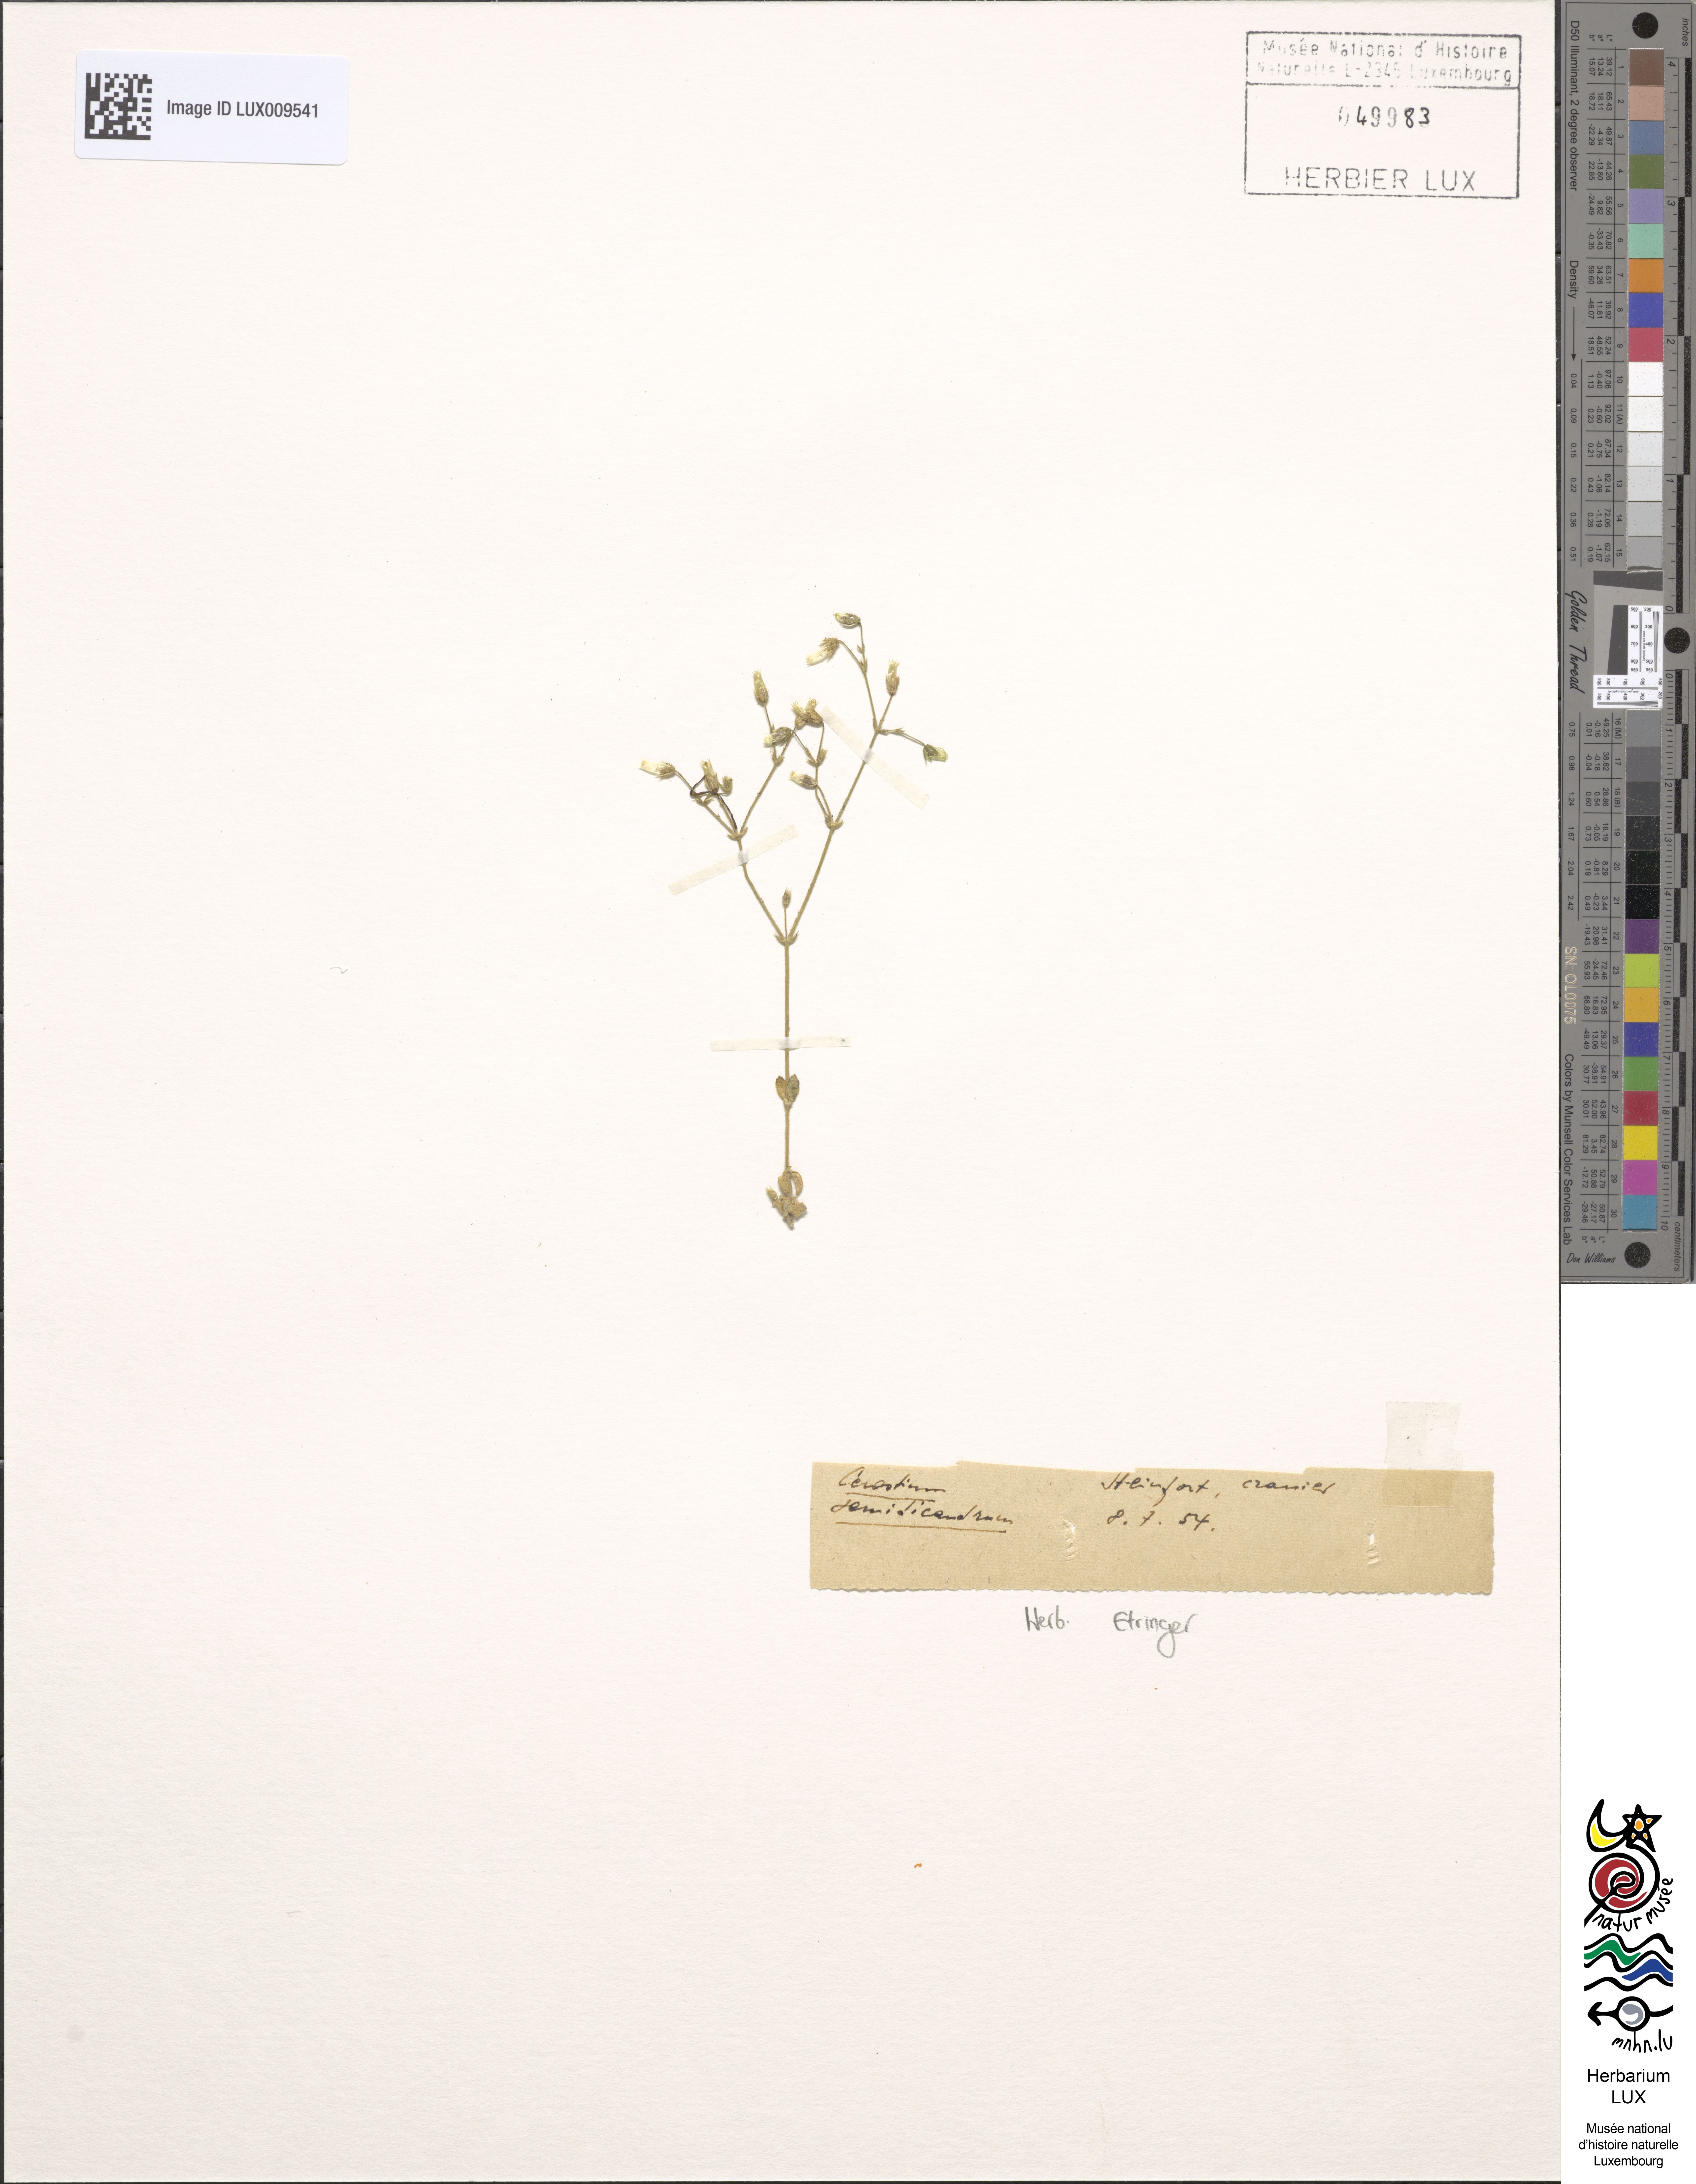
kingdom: Plantae
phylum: Tracheophyta
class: Magnoliopsida
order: Caryophyllales
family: Caryophyllaceae
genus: Cerastium
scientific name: Cerastium semidecandrum
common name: Little mouse-ear
